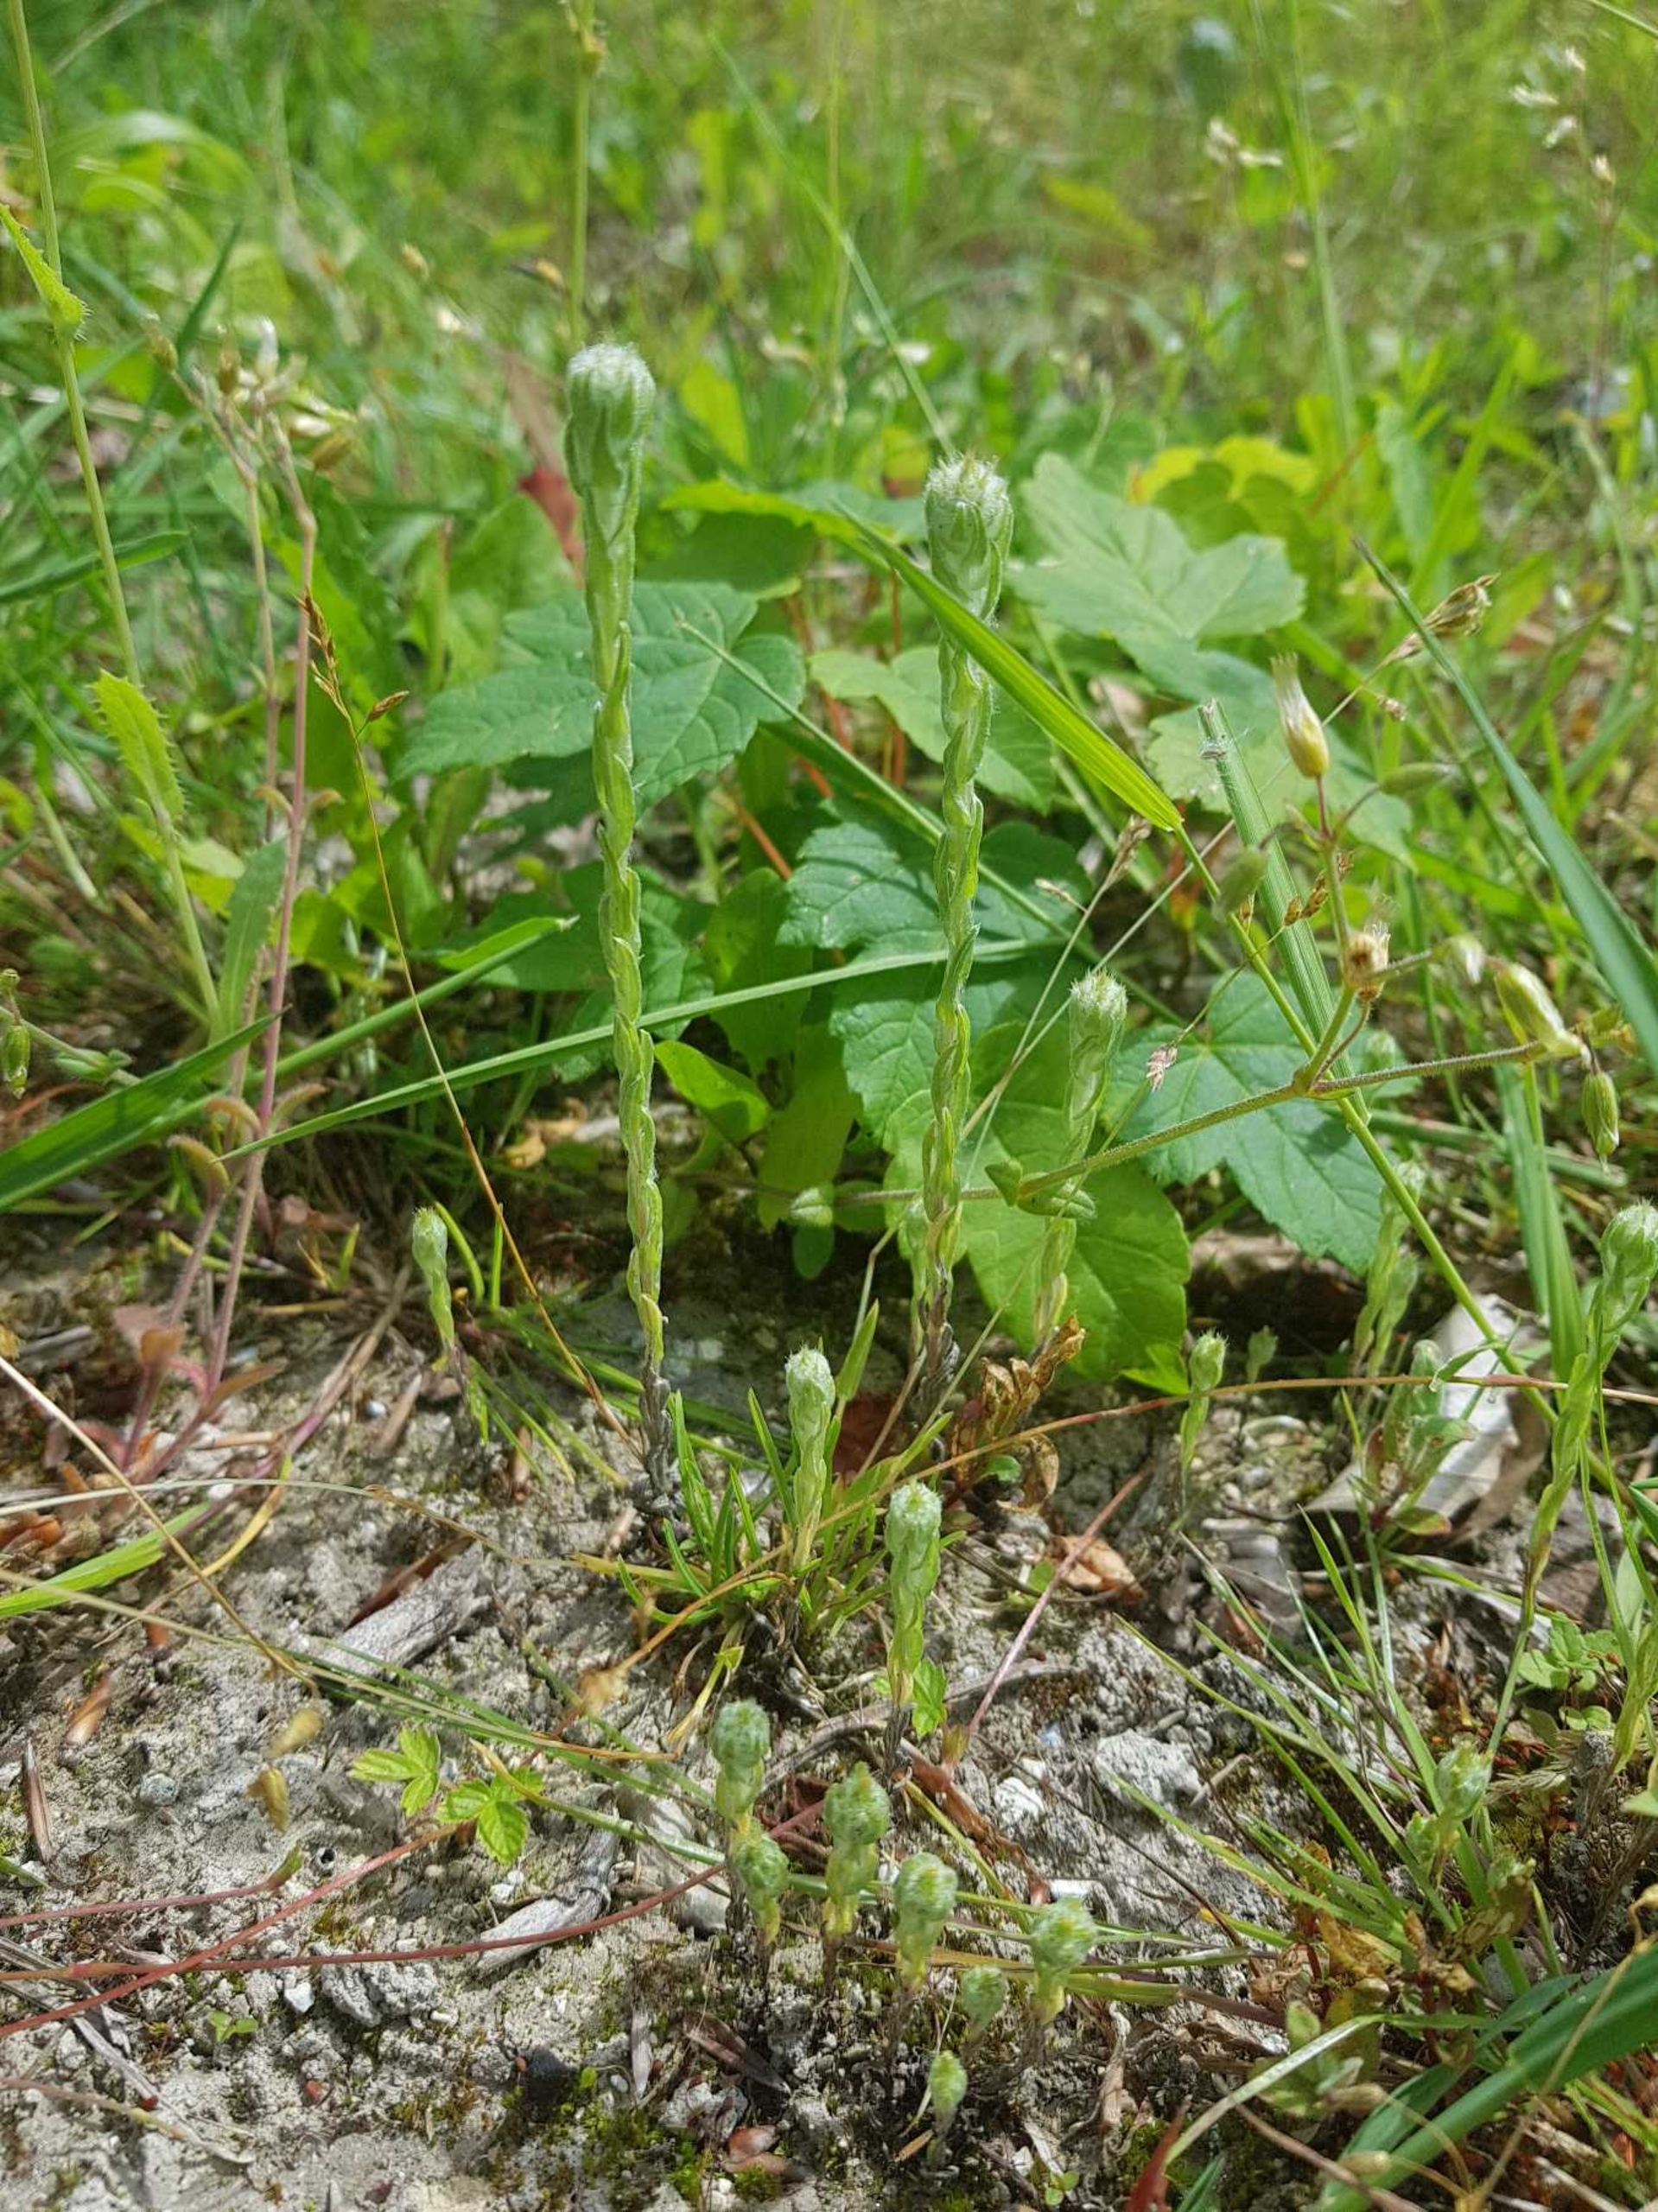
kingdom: Plantae
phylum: Tracheophyta
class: Magnoliopsida
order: Asterales
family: Asteraceae
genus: Filago
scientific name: Filago germanica
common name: Kugle-museurt
